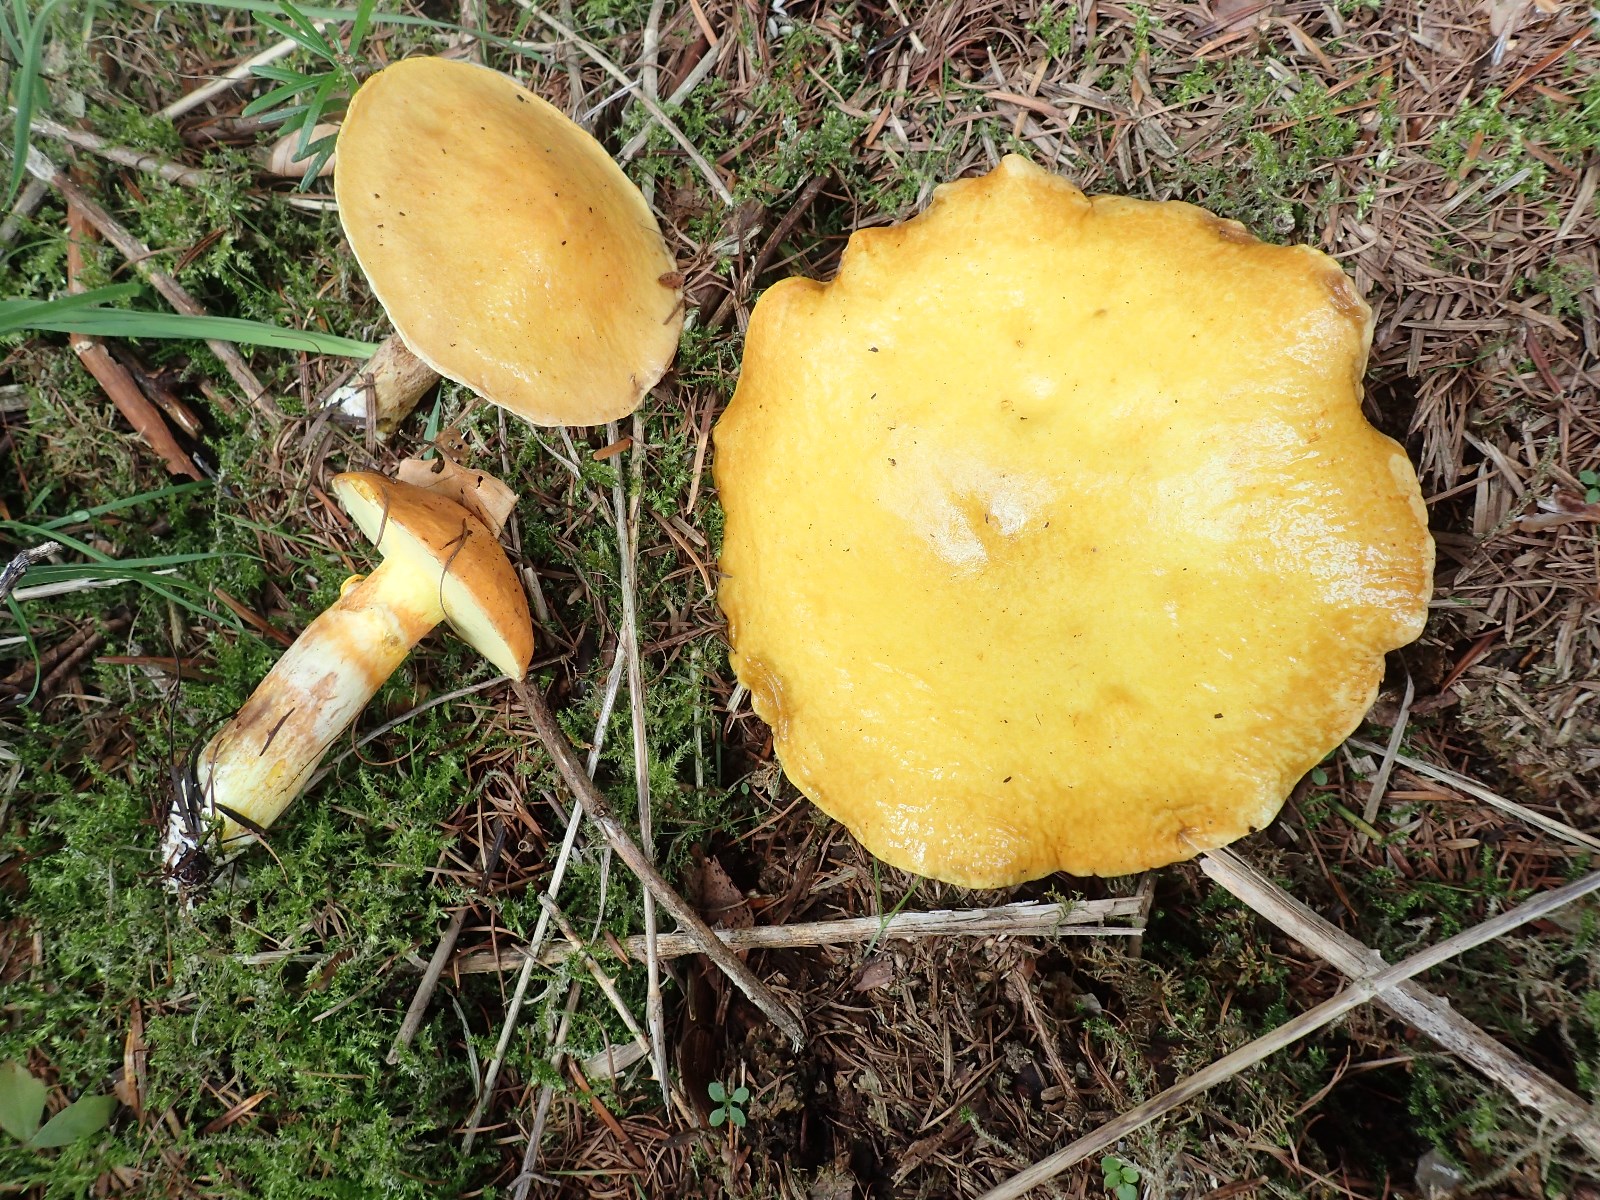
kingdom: Fungi
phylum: Basidiomycota
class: Agaricomycetes
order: Boletales
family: Suillaceae
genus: Suillus
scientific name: Suillus grevillei
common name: lærke-slimrørhat
